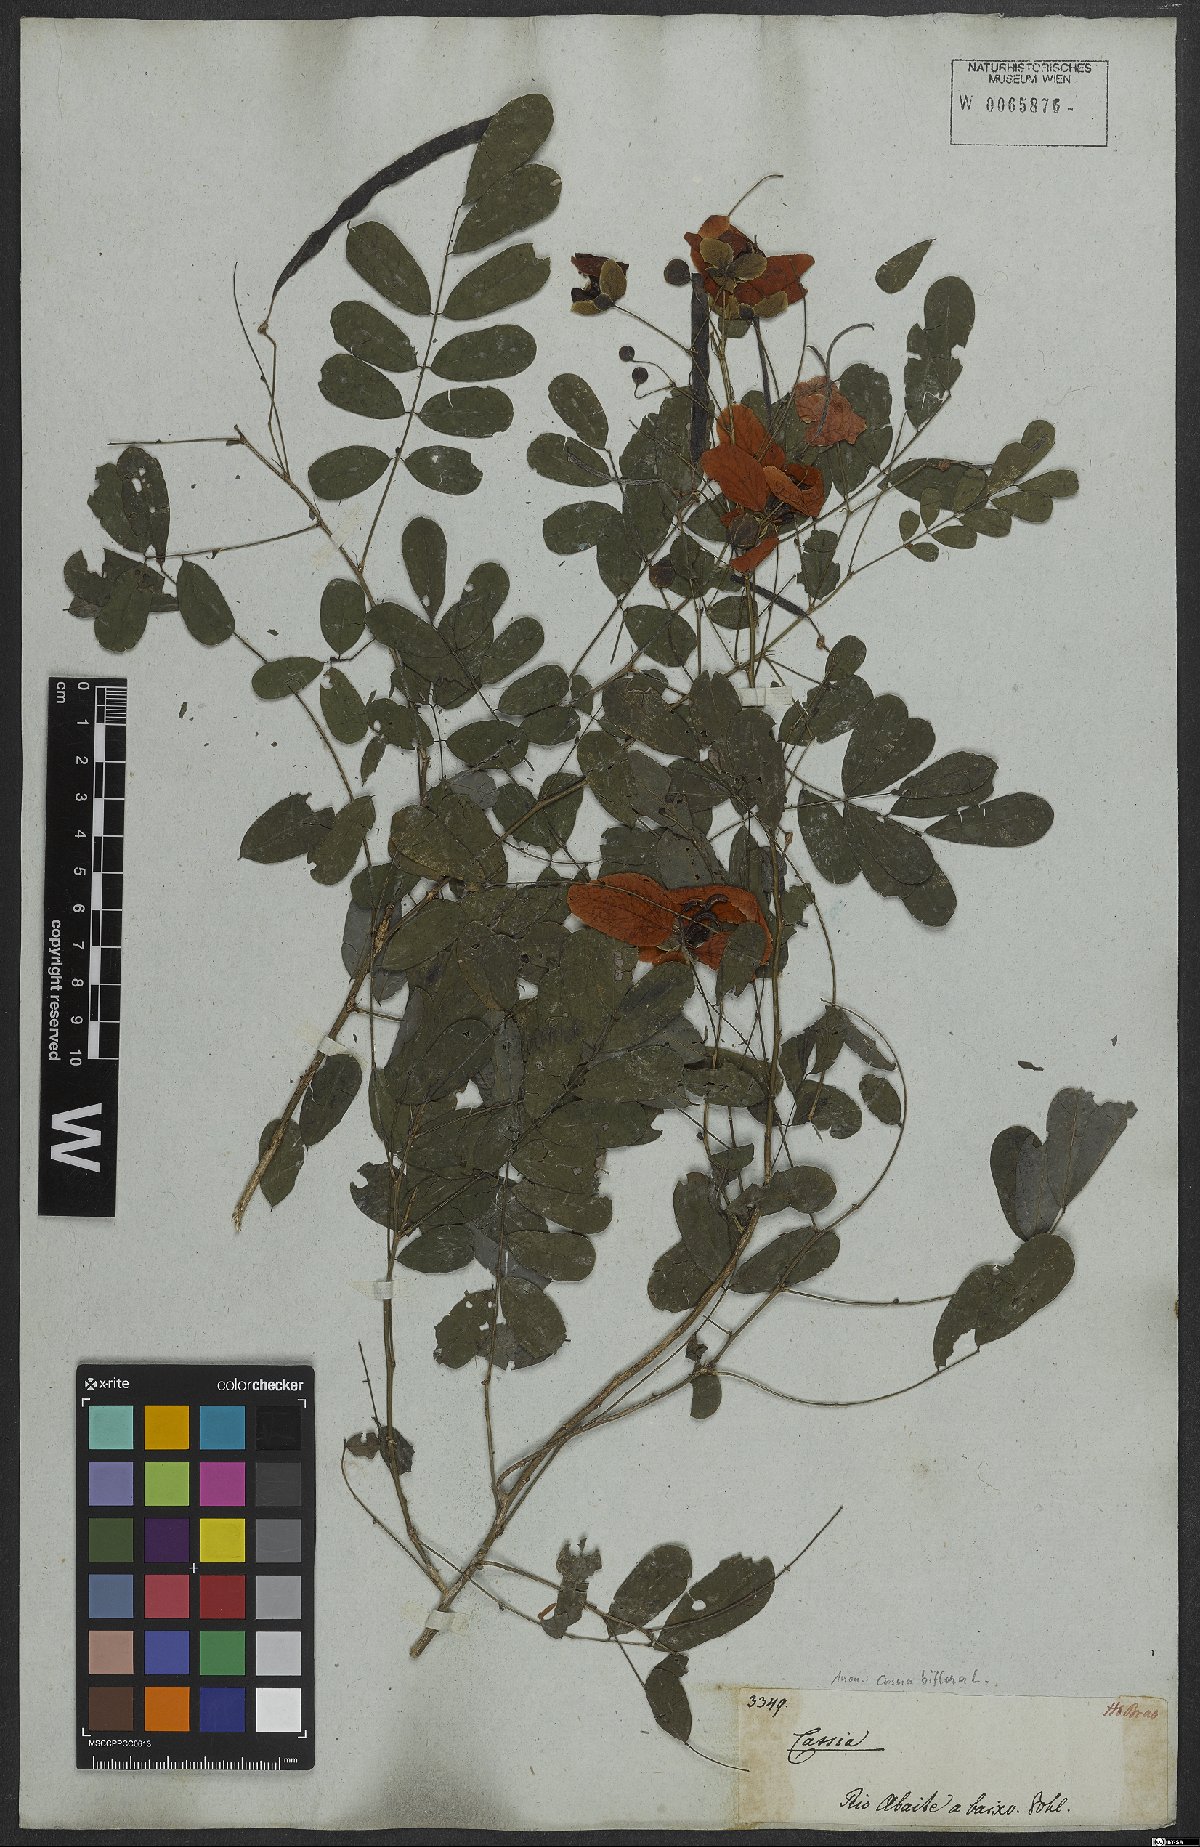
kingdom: Plantae
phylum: Tracheophyta
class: Magnoliopsida
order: Fabales
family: Fabaceae
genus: Senna
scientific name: Senna pallida
